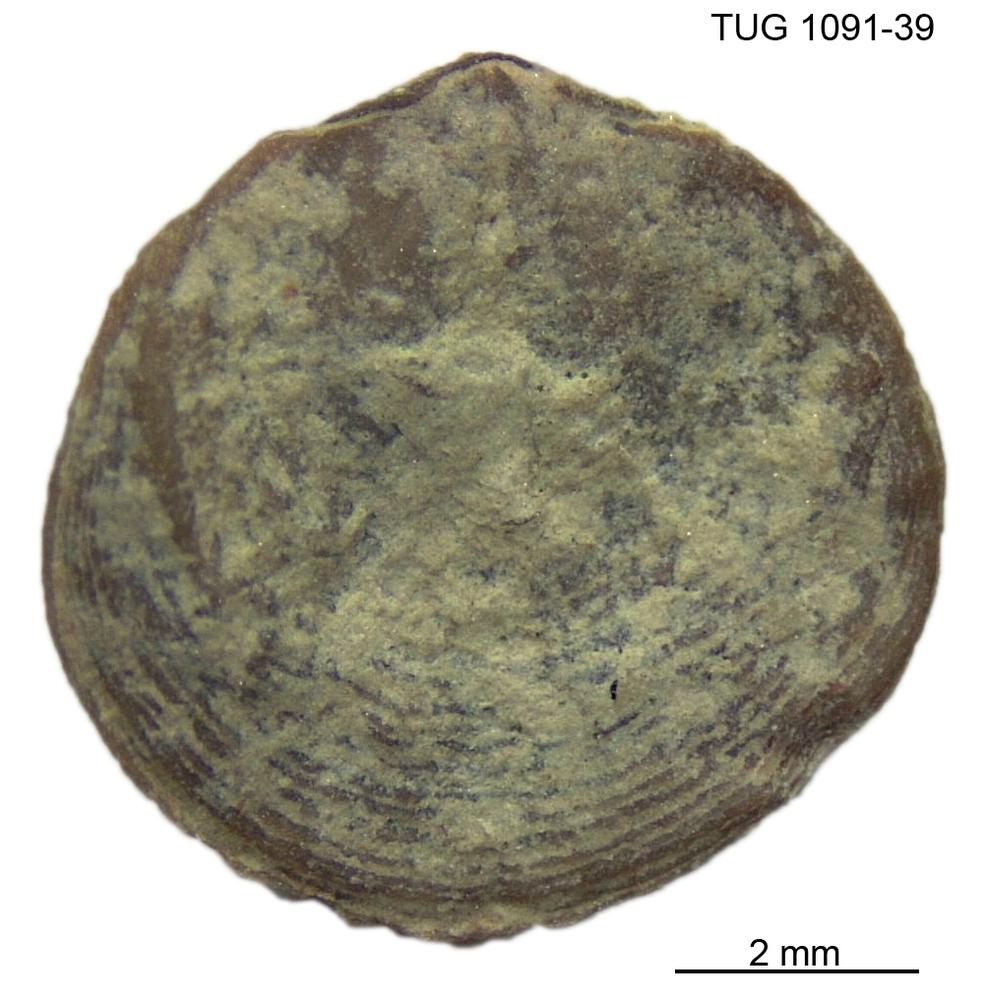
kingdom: Animalia
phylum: Brachiopoda
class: Rhynchonellata
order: Rhynchonellida
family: Rhynchotrematidae
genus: Rhynchotrema
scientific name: Rhynchotrema
